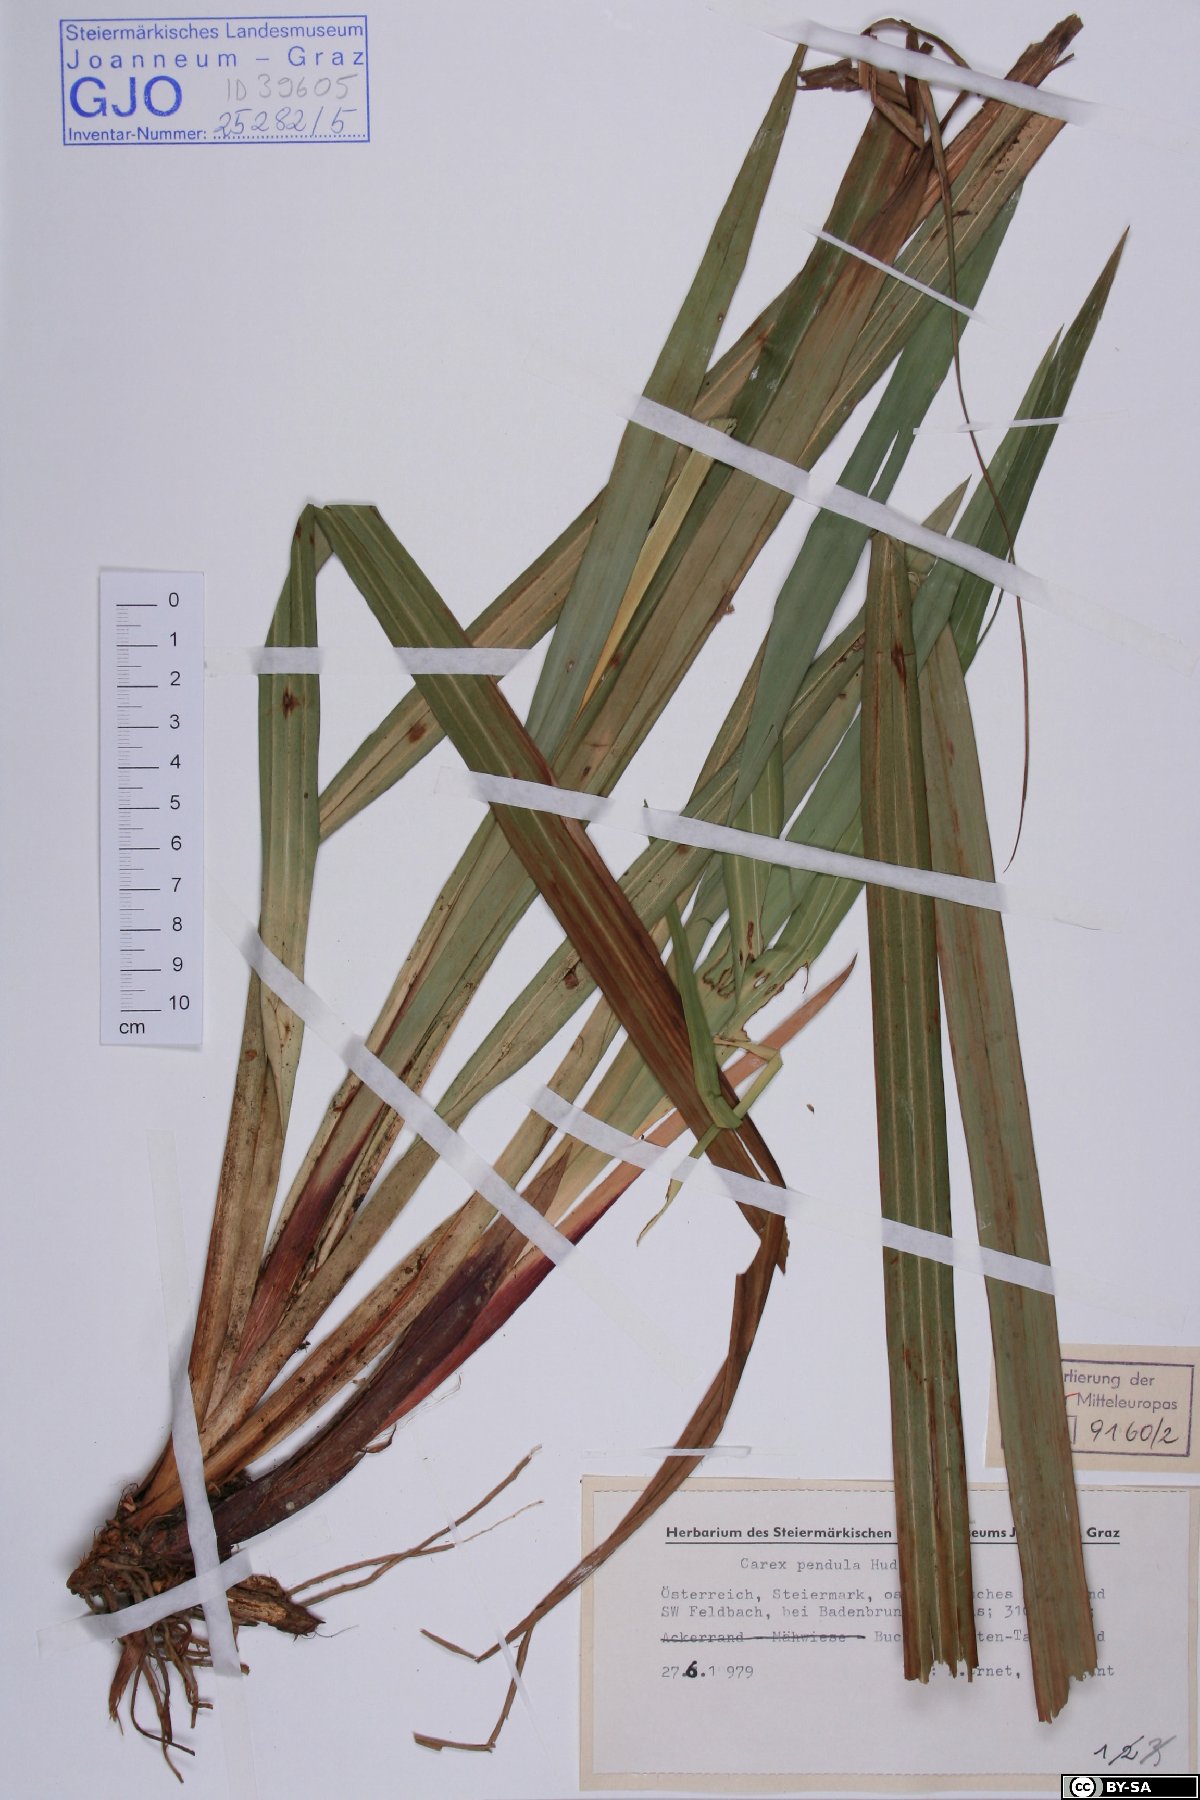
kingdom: Plantae
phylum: Tracheophyta
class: Liliopsida
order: Poales
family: Cyperaceae
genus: Carex
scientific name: Carex pendula
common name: Pendulous sedge
